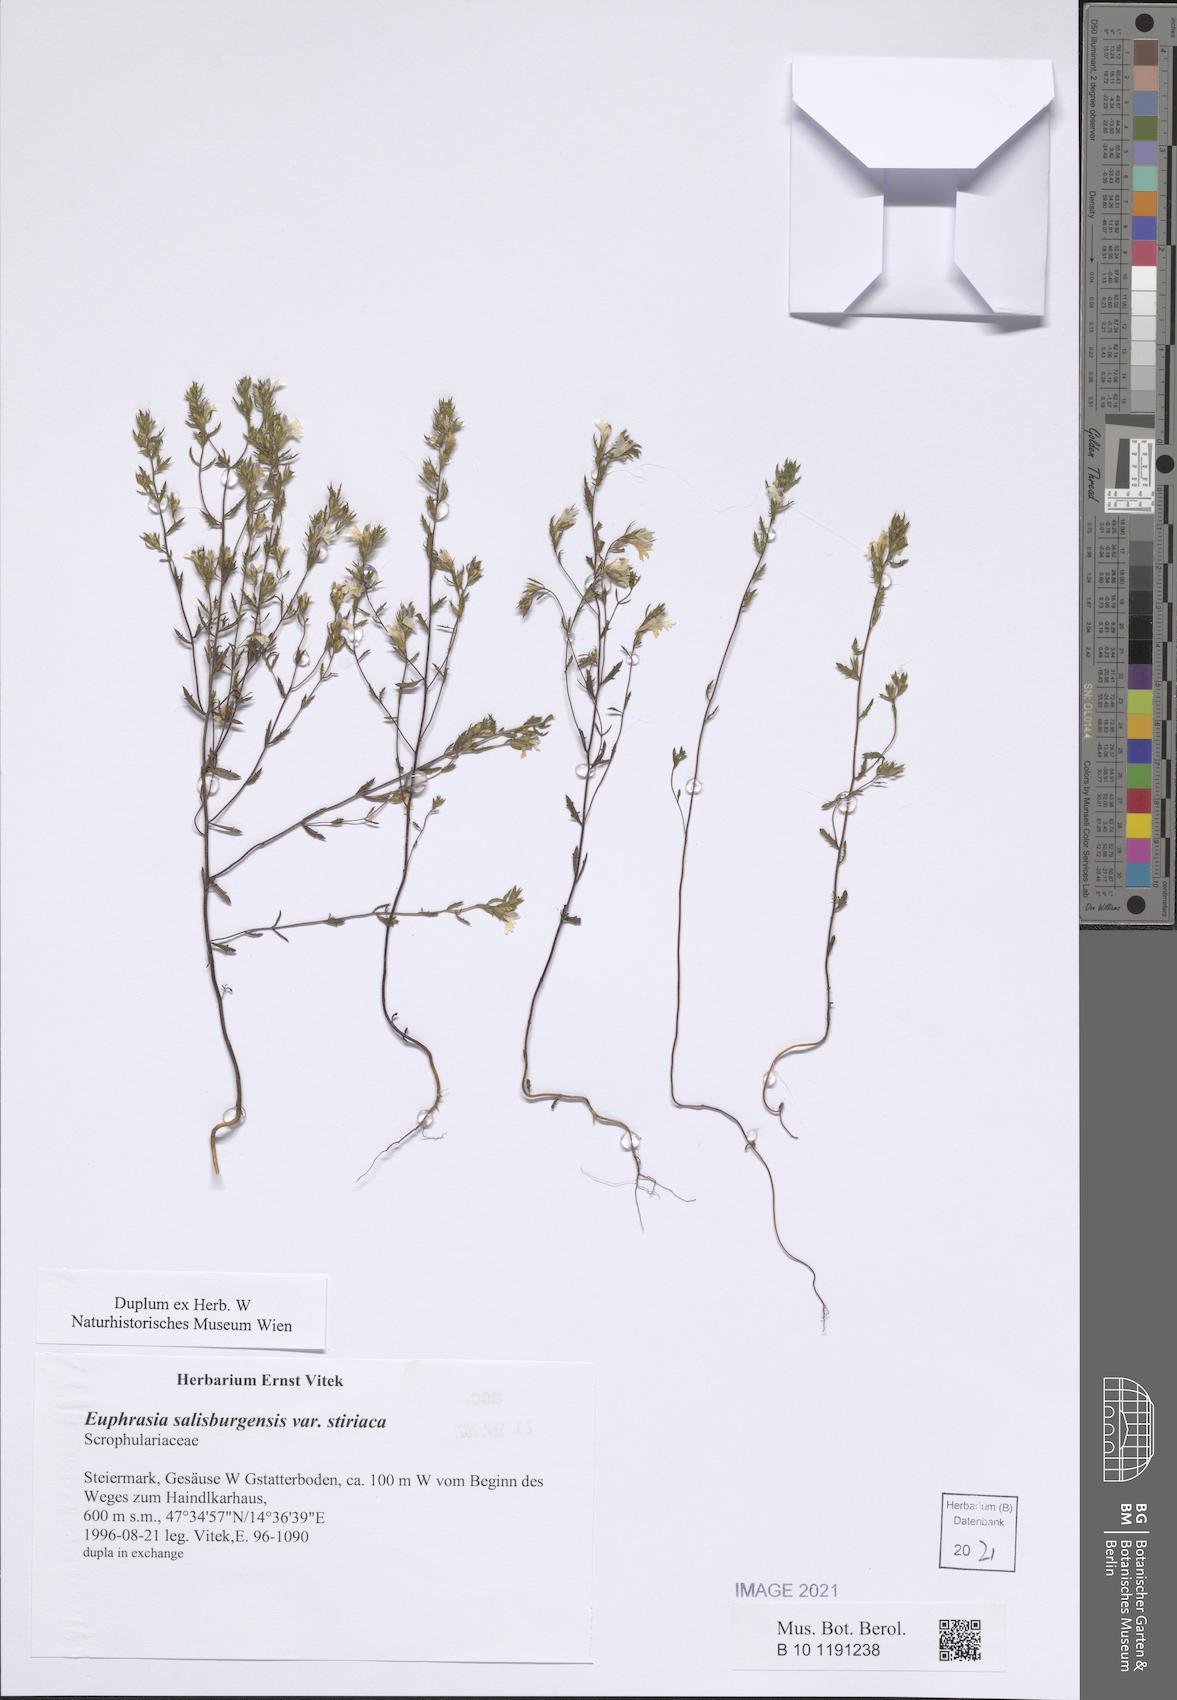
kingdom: Plantae
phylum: Tracheophyta
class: Magnoliopsida
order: Malpighiales
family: Salicaceae
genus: Salix
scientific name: Salix appendiculata
